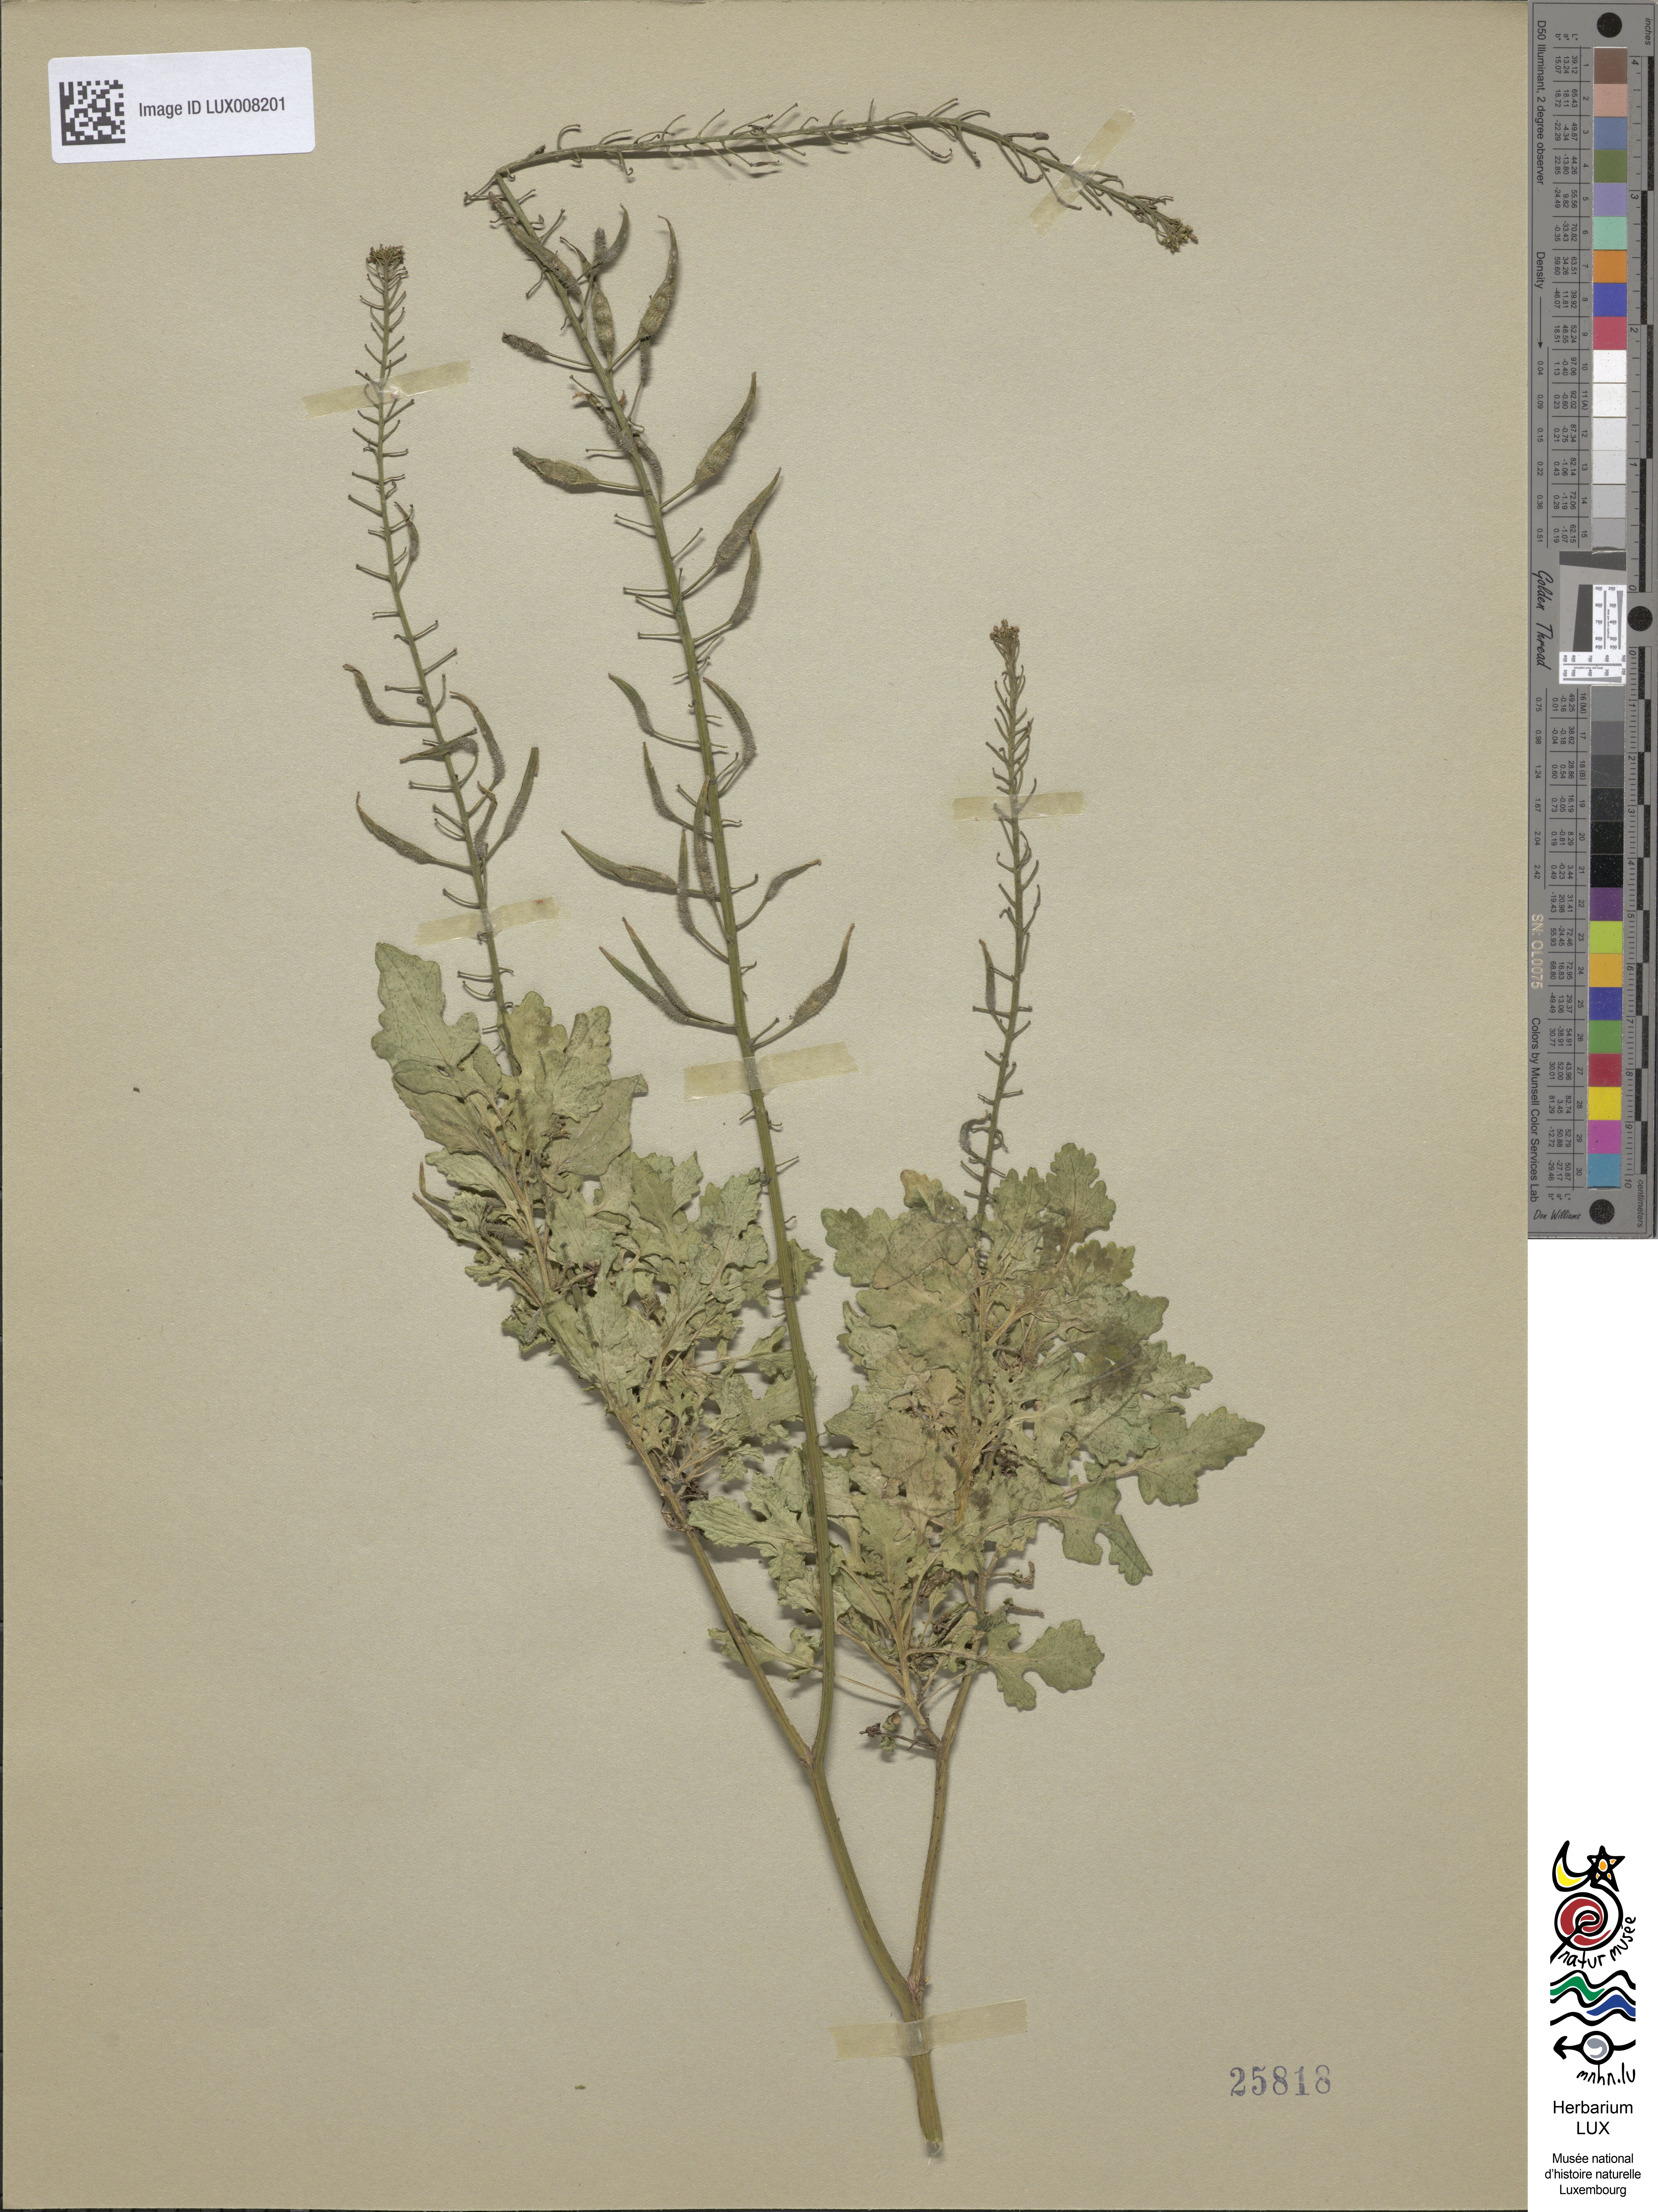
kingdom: Plantae
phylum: Tracheophyta
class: Magnoliopsida
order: Brassicales
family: Brassicaceae
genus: Sinapis
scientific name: Sinapis alba
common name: White mustard
